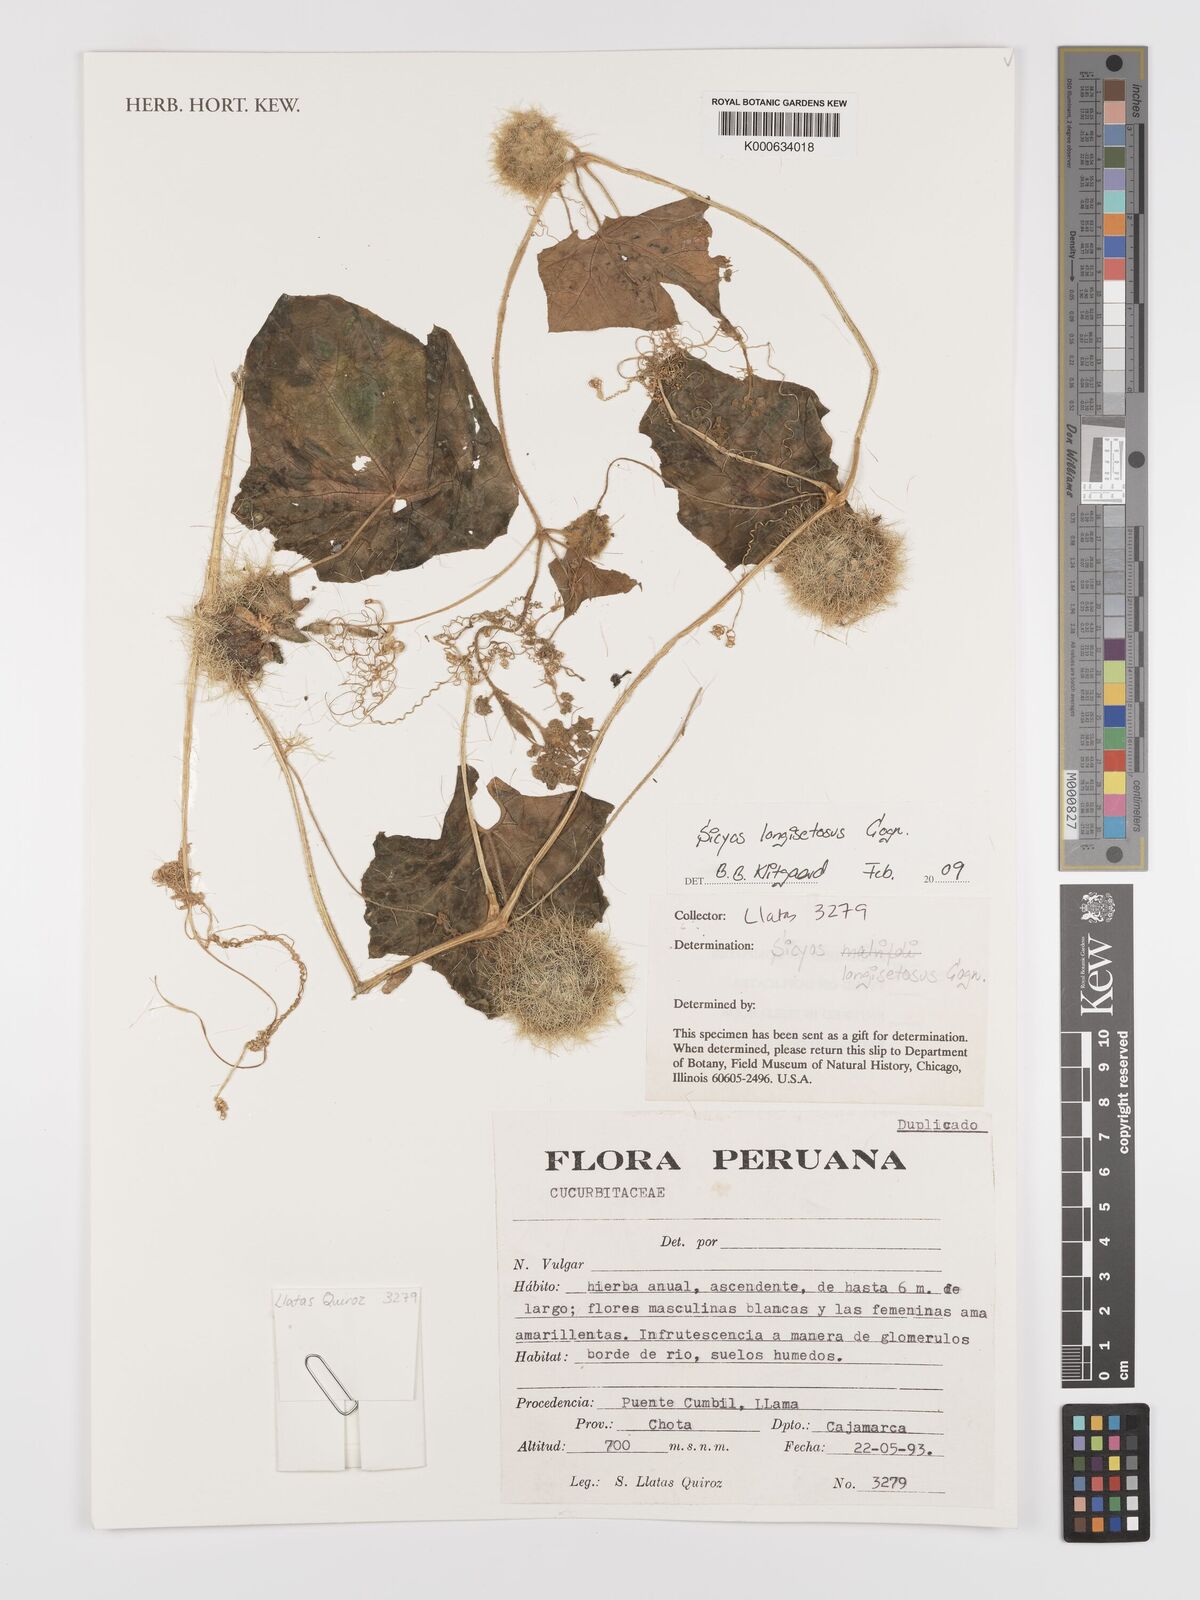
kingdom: Plantae
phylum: Tracheophyta
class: Magnoliopsida
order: Cucurbitales
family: Cucurbitaceae
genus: Sicyos
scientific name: Sicyos longisetosus
